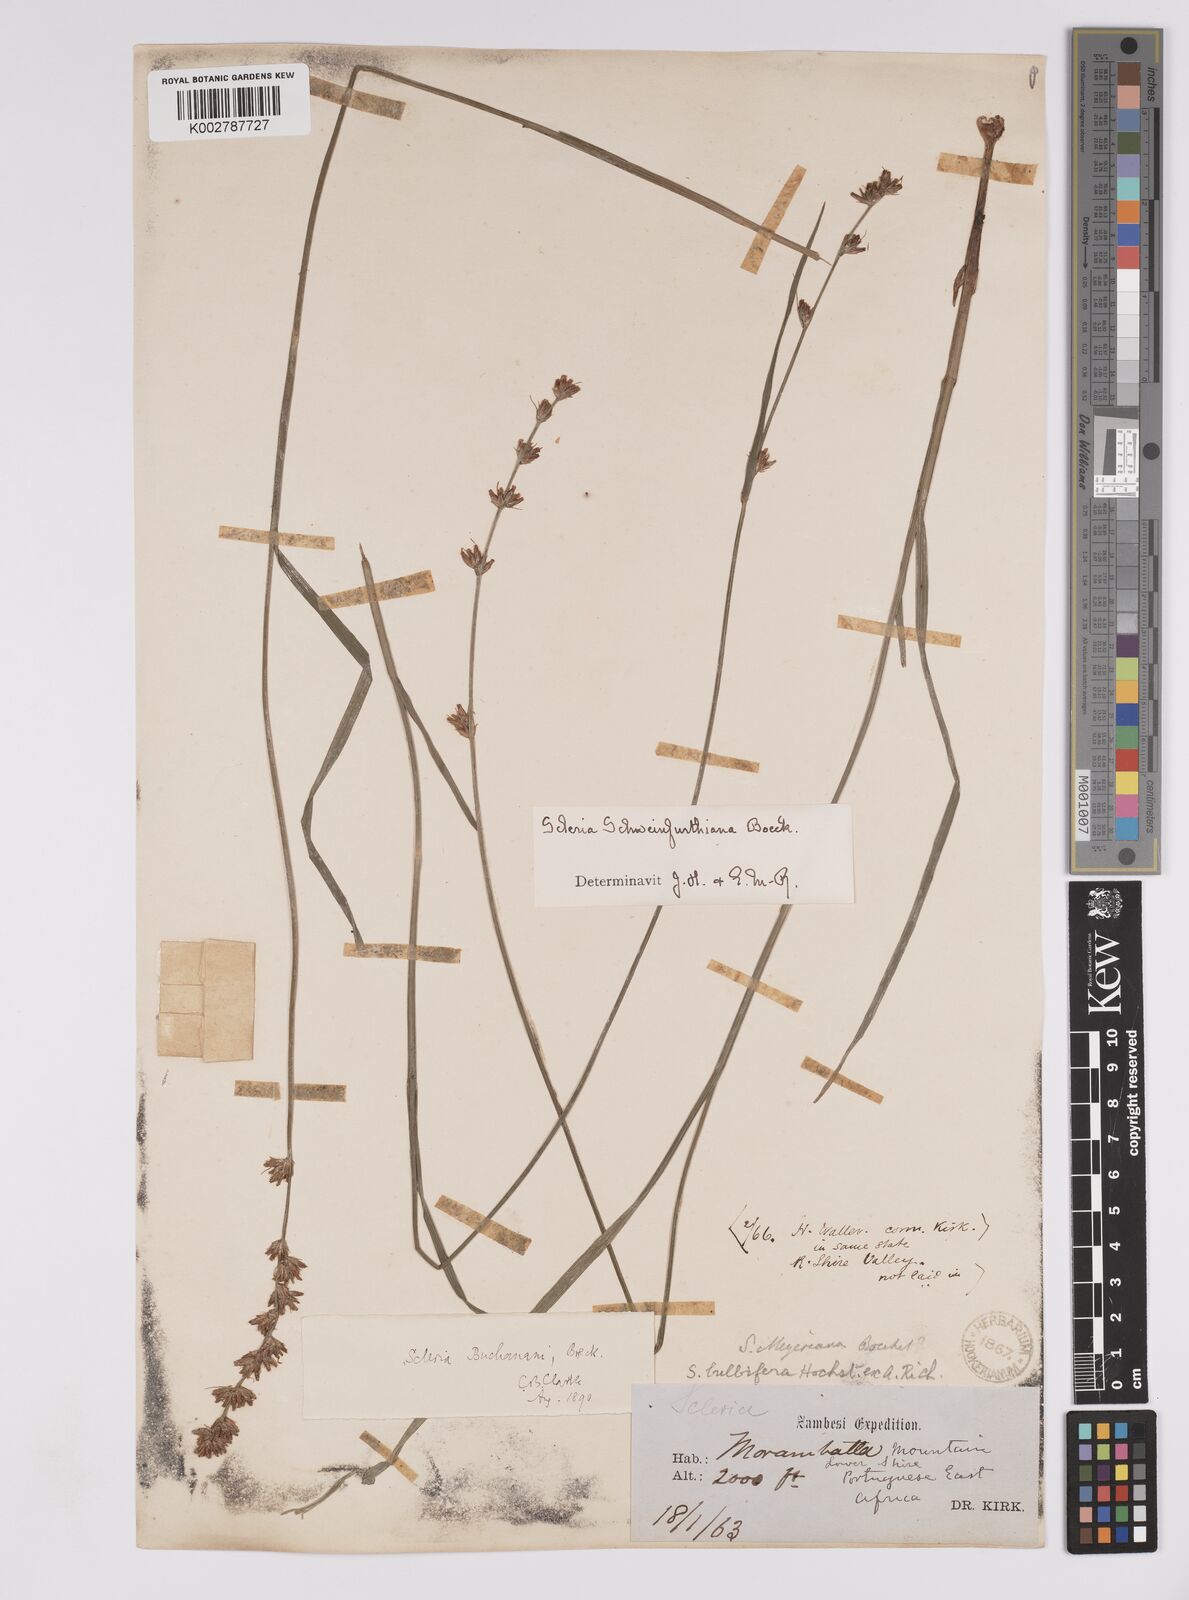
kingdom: Plantae
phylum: Tracheophyta
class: Liliopsida
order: Poales
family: Cyperaceae
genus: Scleria
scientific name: Scleria bulbifera
